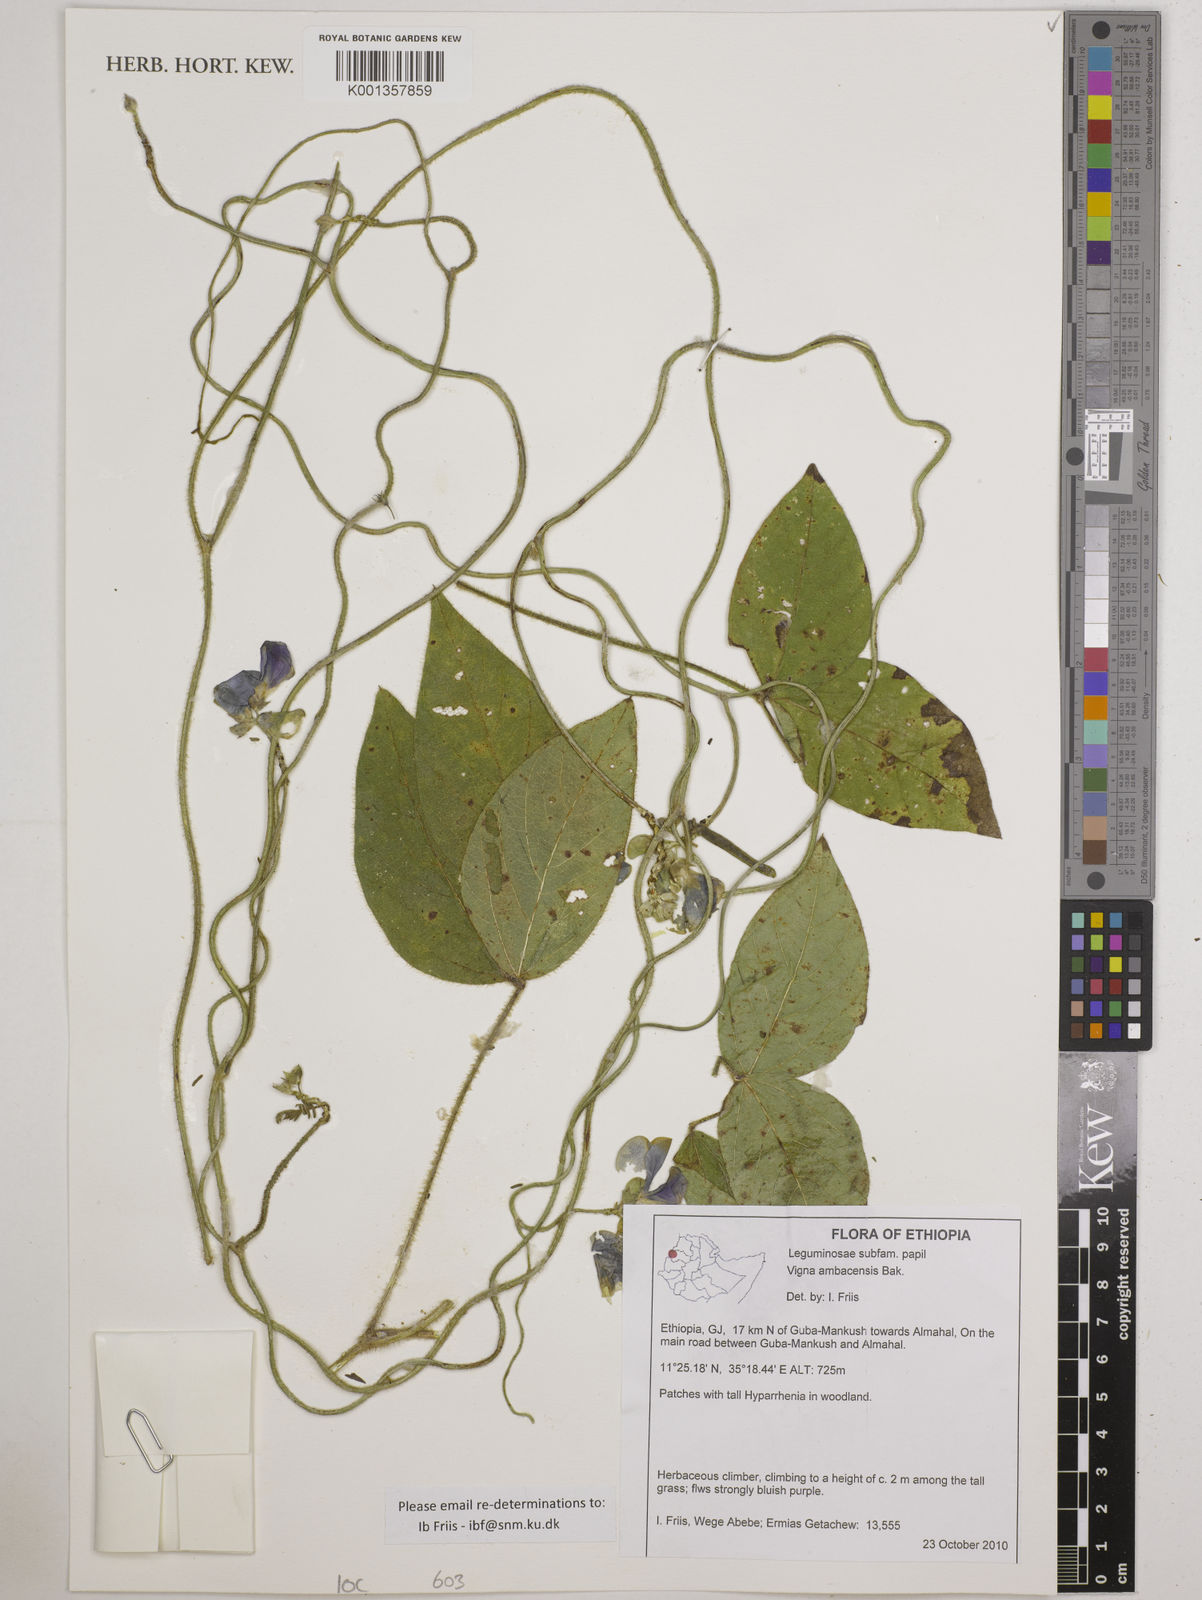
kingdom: Plantae
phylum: Tracheophyta
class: Magnoliopsida
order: Fabales
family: Fabaceae
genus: Vigna
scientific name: Vigna ambacensis
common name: Tsarkiyan zomo
